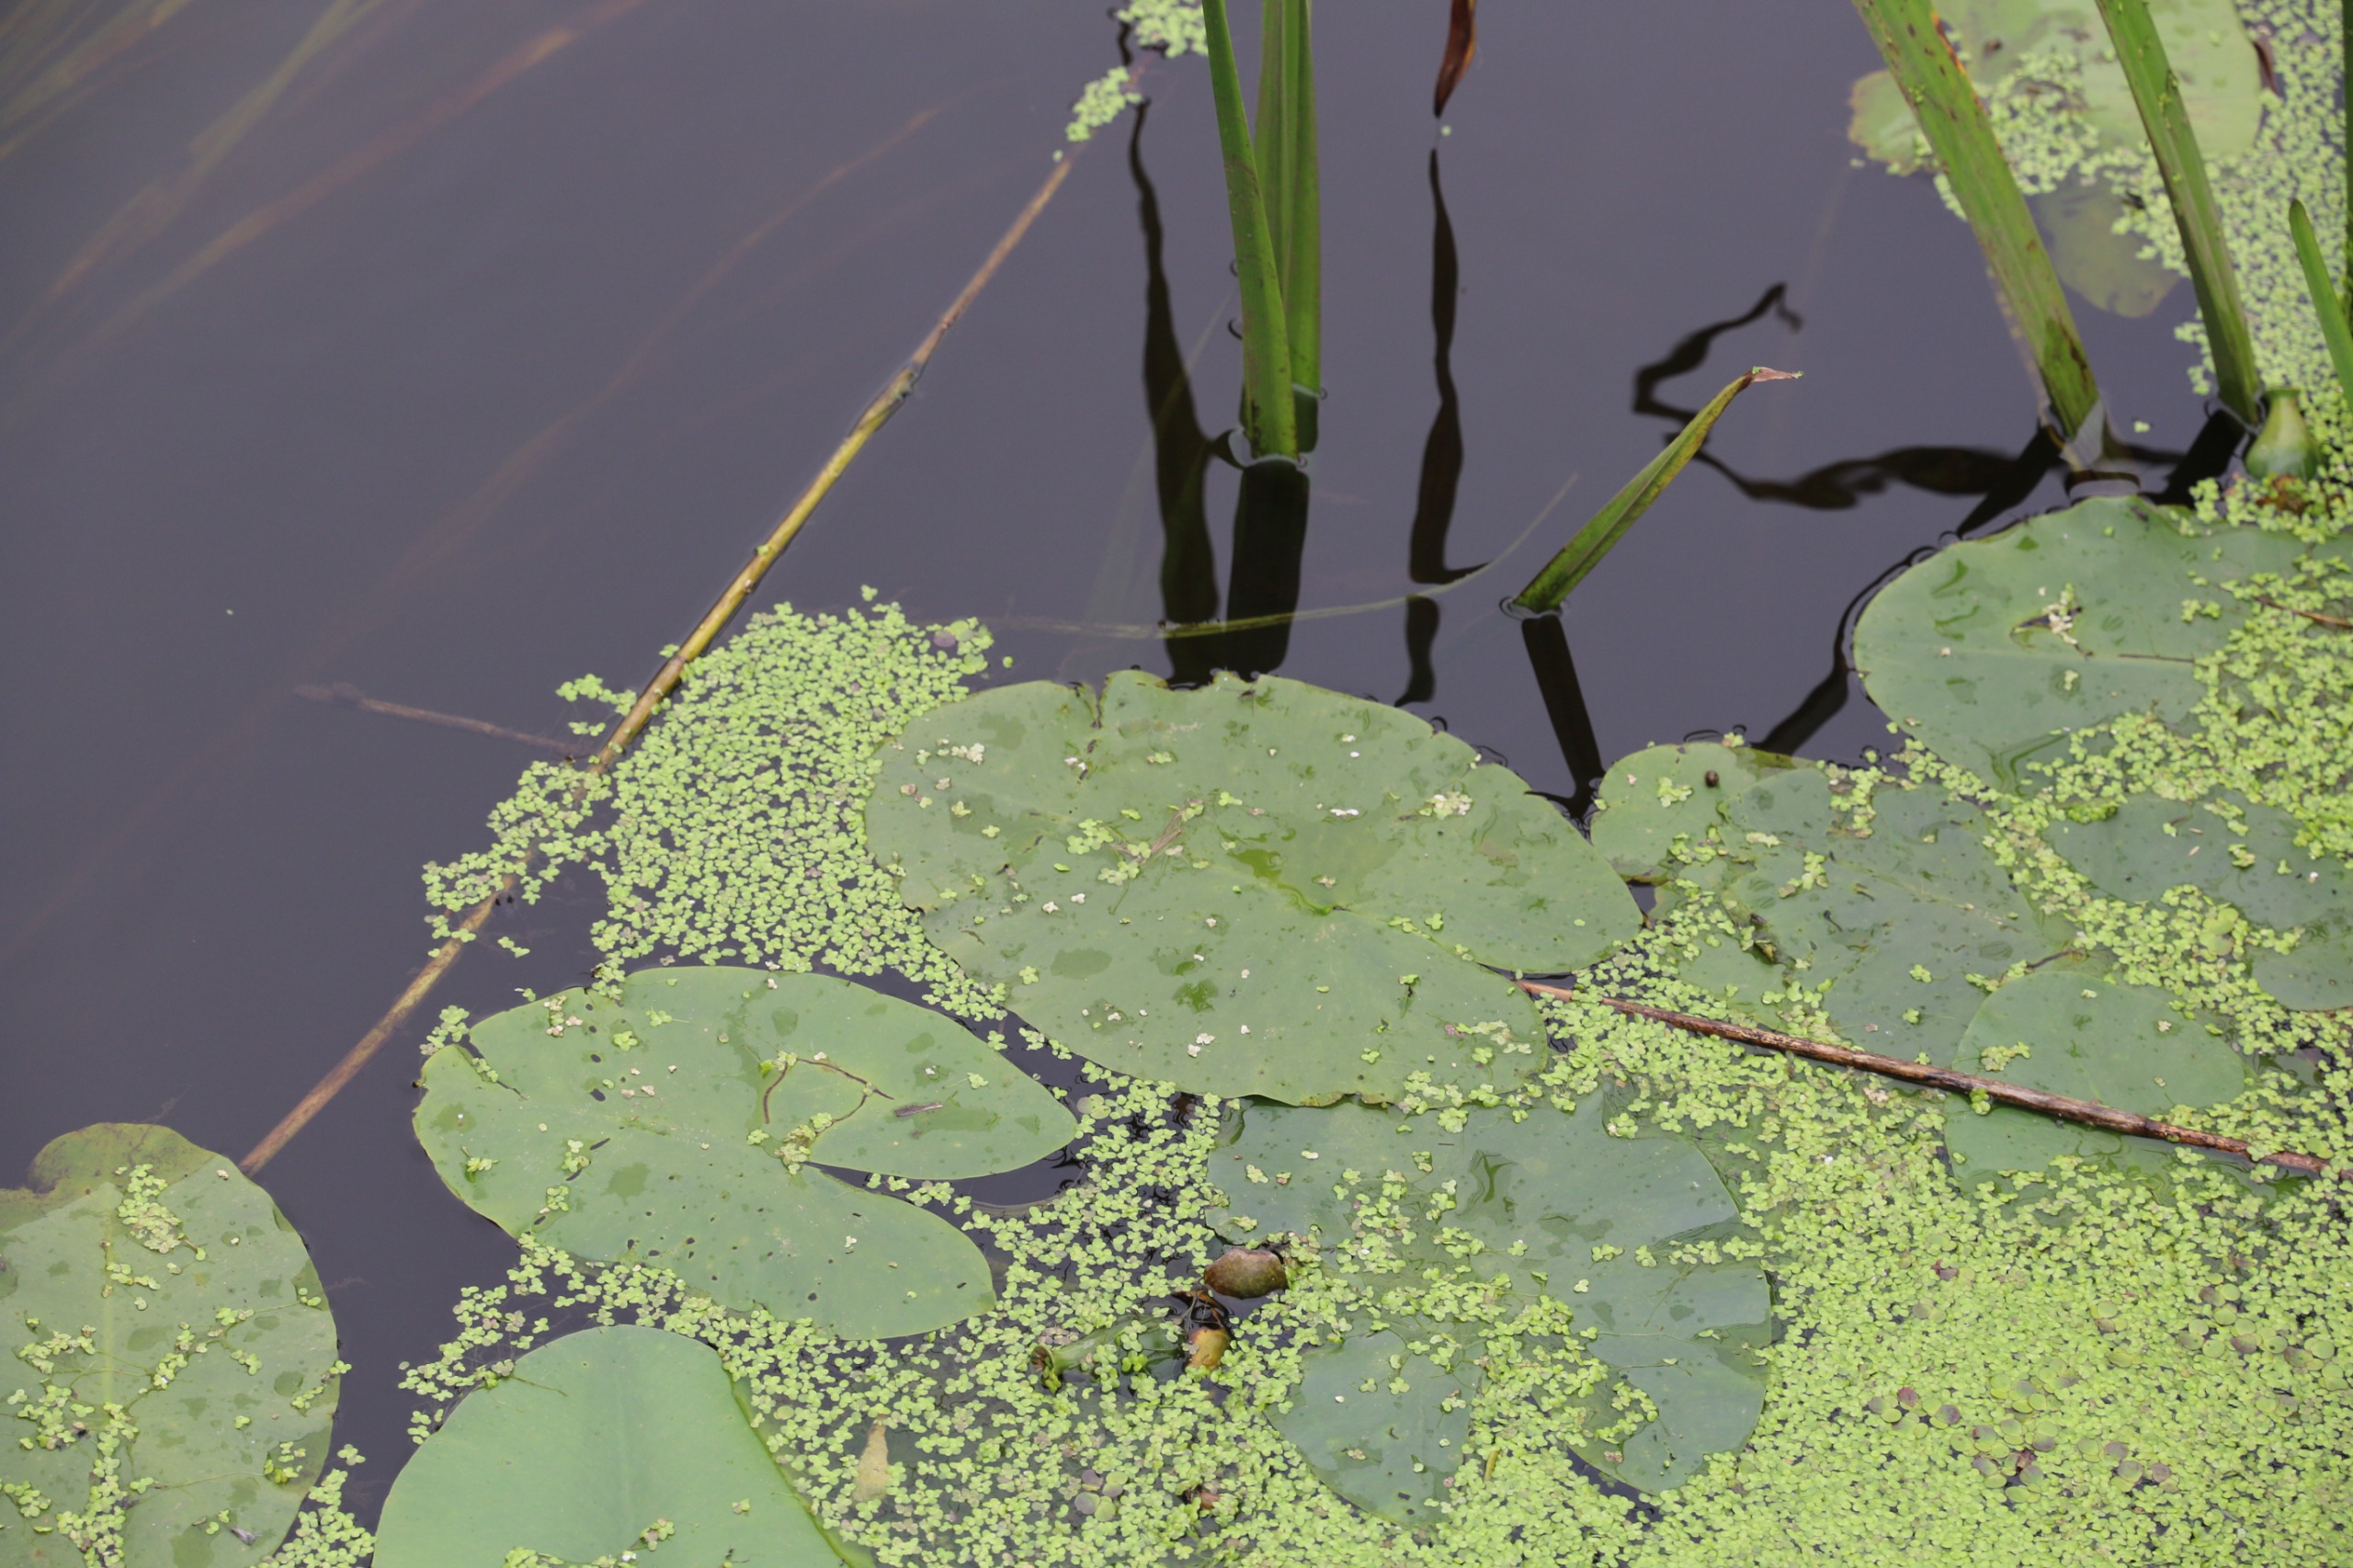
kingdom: Plantae
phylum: Tracheophyta
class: Magnoliopsida
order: Nymphaeales
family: Nymphaeaceae
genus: Nuphar
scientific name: Nuphar lutea
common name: Gul åkande
